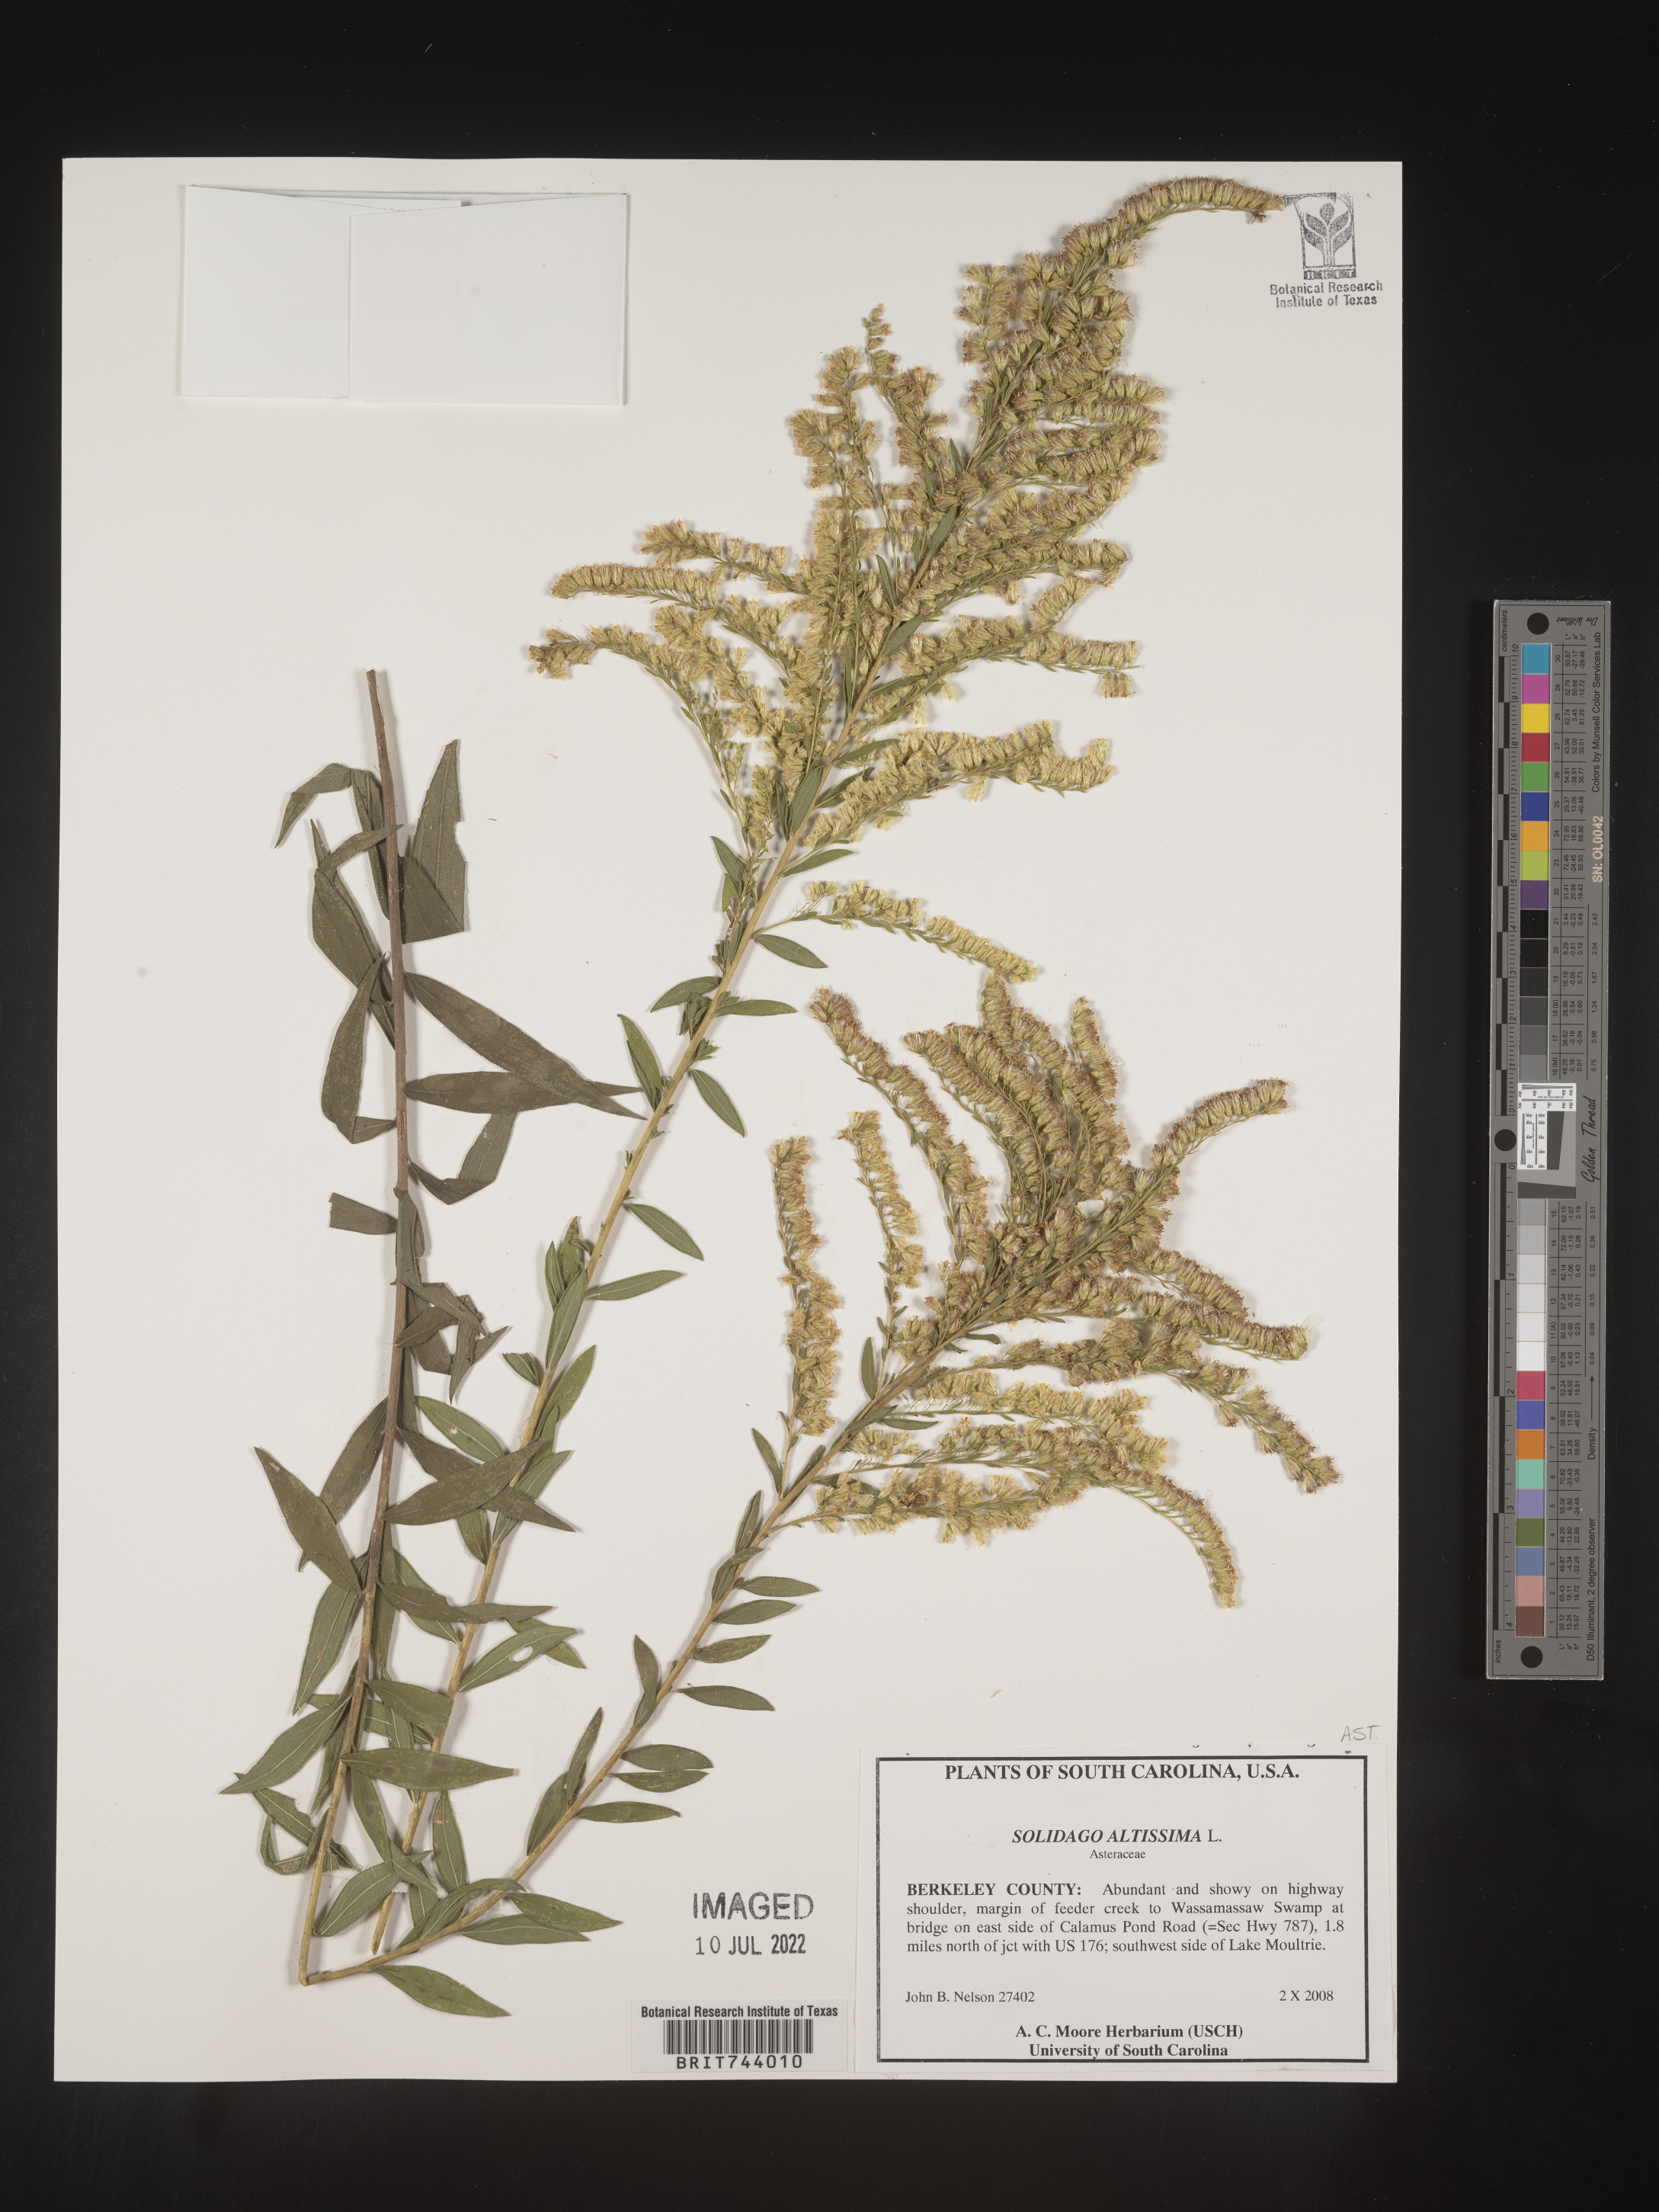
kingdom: Plantae
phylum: Tracheophyta
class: Magnoliopsida
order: Asterales
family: Asteraceae
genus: Solidago
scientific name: Solidago altissima
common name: Late goldenrod
